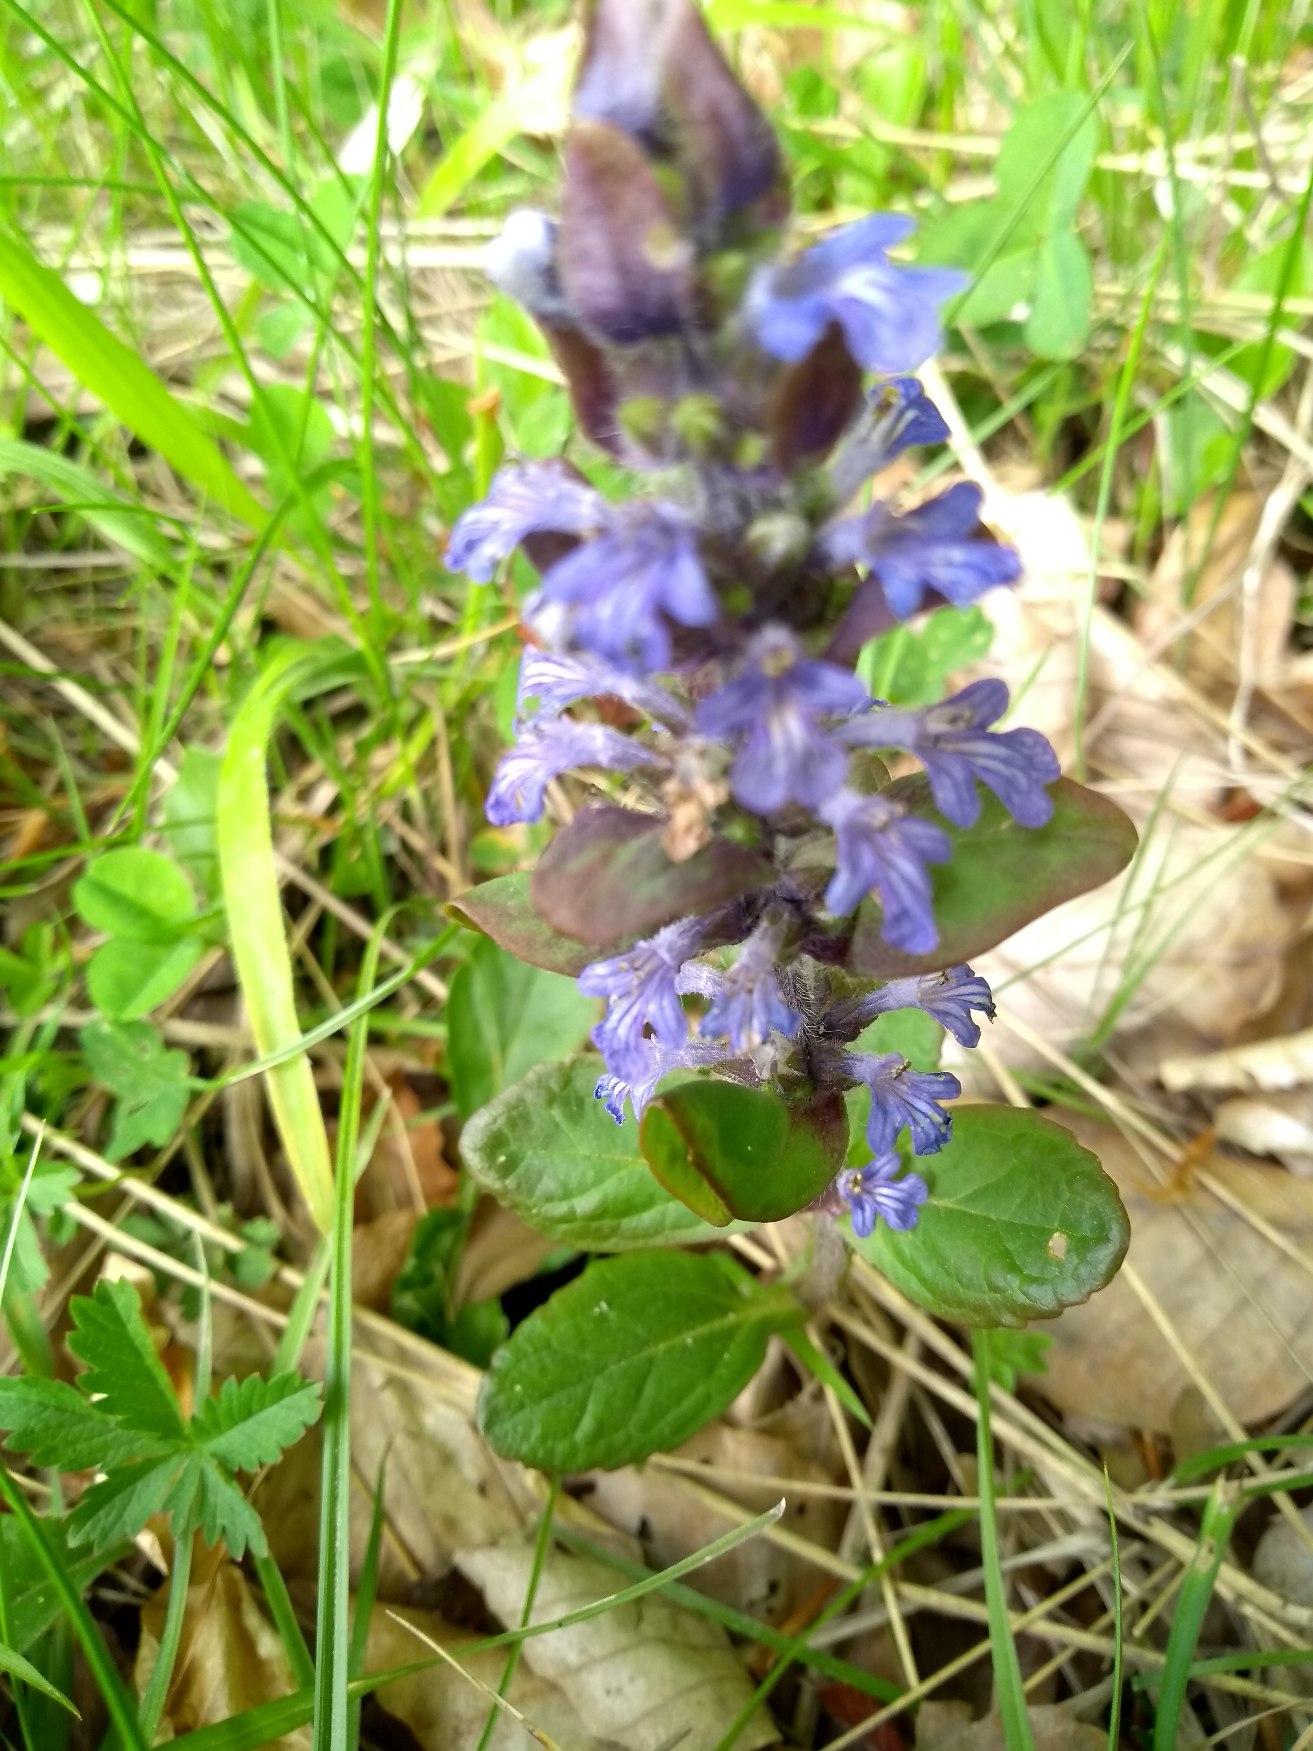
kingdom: Plantae
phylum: Tracheophyta
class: Magnoliopsida
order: Lamiales
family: Lamiaceae
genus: Ajuga
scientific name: Ajuga reptans
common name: Krybende læbeløs
